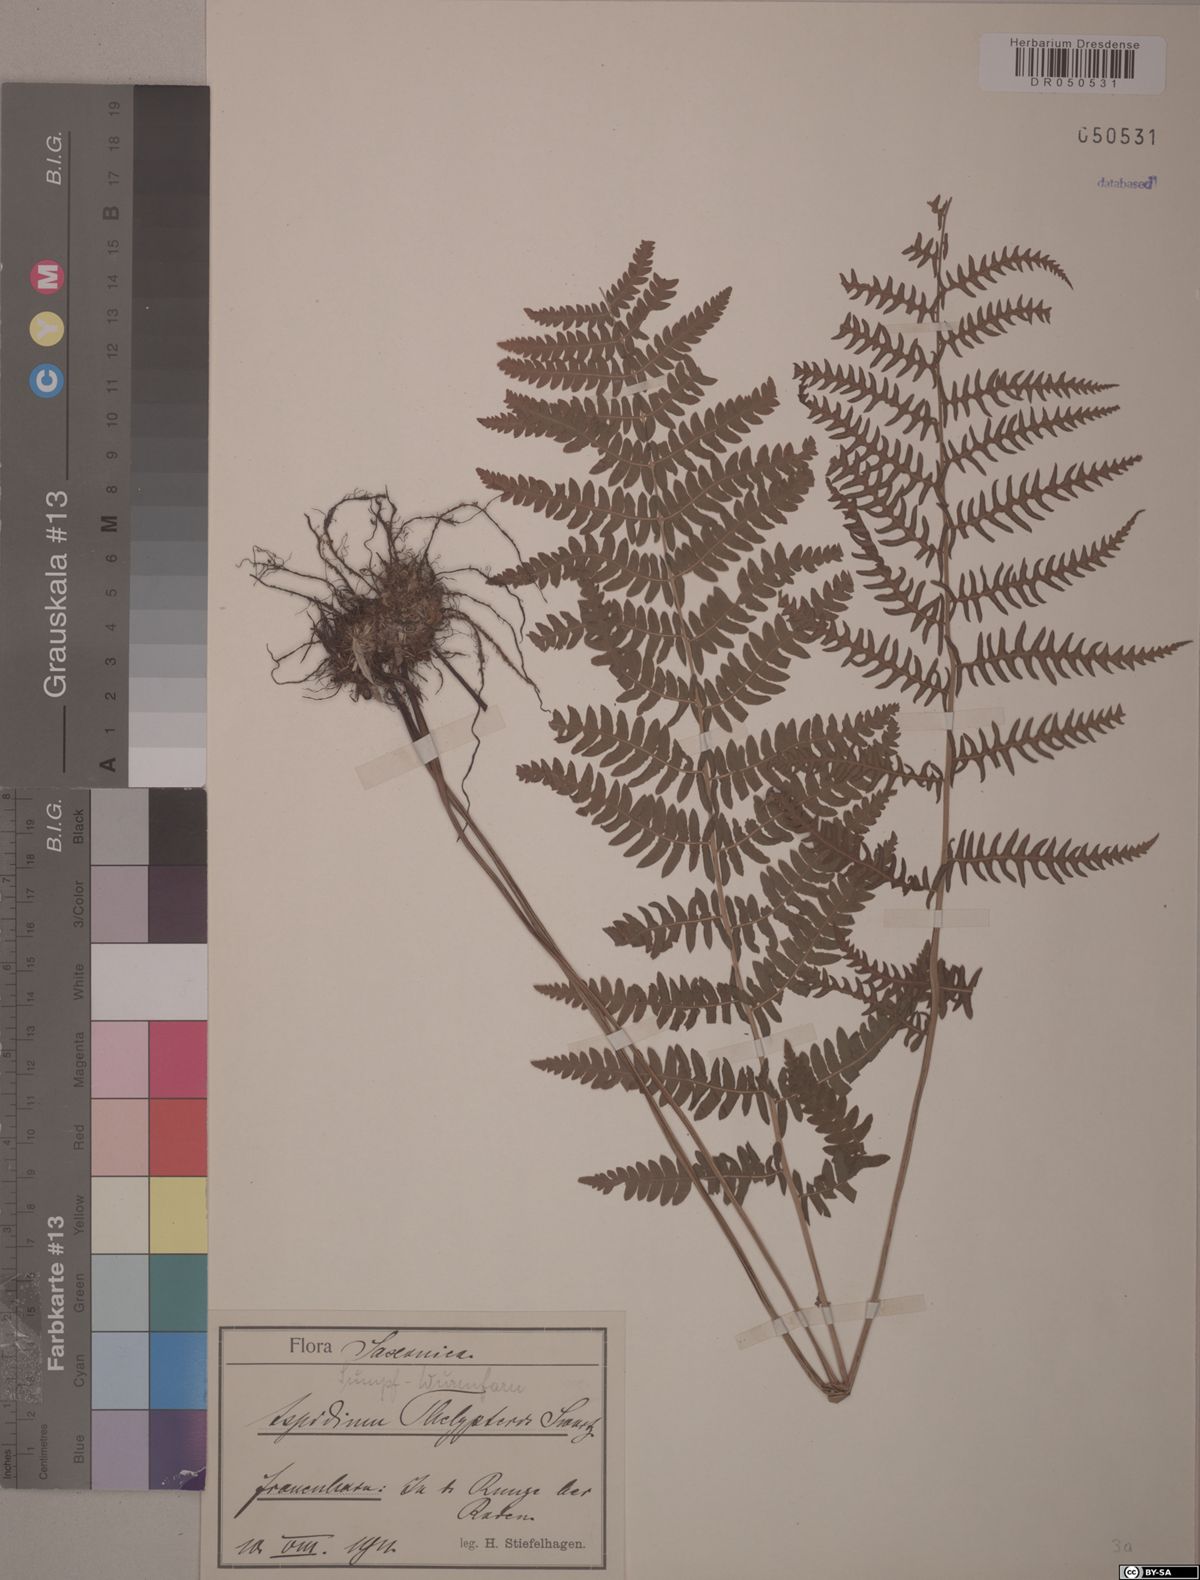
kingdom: Plantae
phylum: Tracheophyta
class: Polypodiopsida
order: Polypodiales
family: Thelypteridaceae
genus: Thelypteris
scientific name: Thelypteris palustris
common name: Marsh fern
